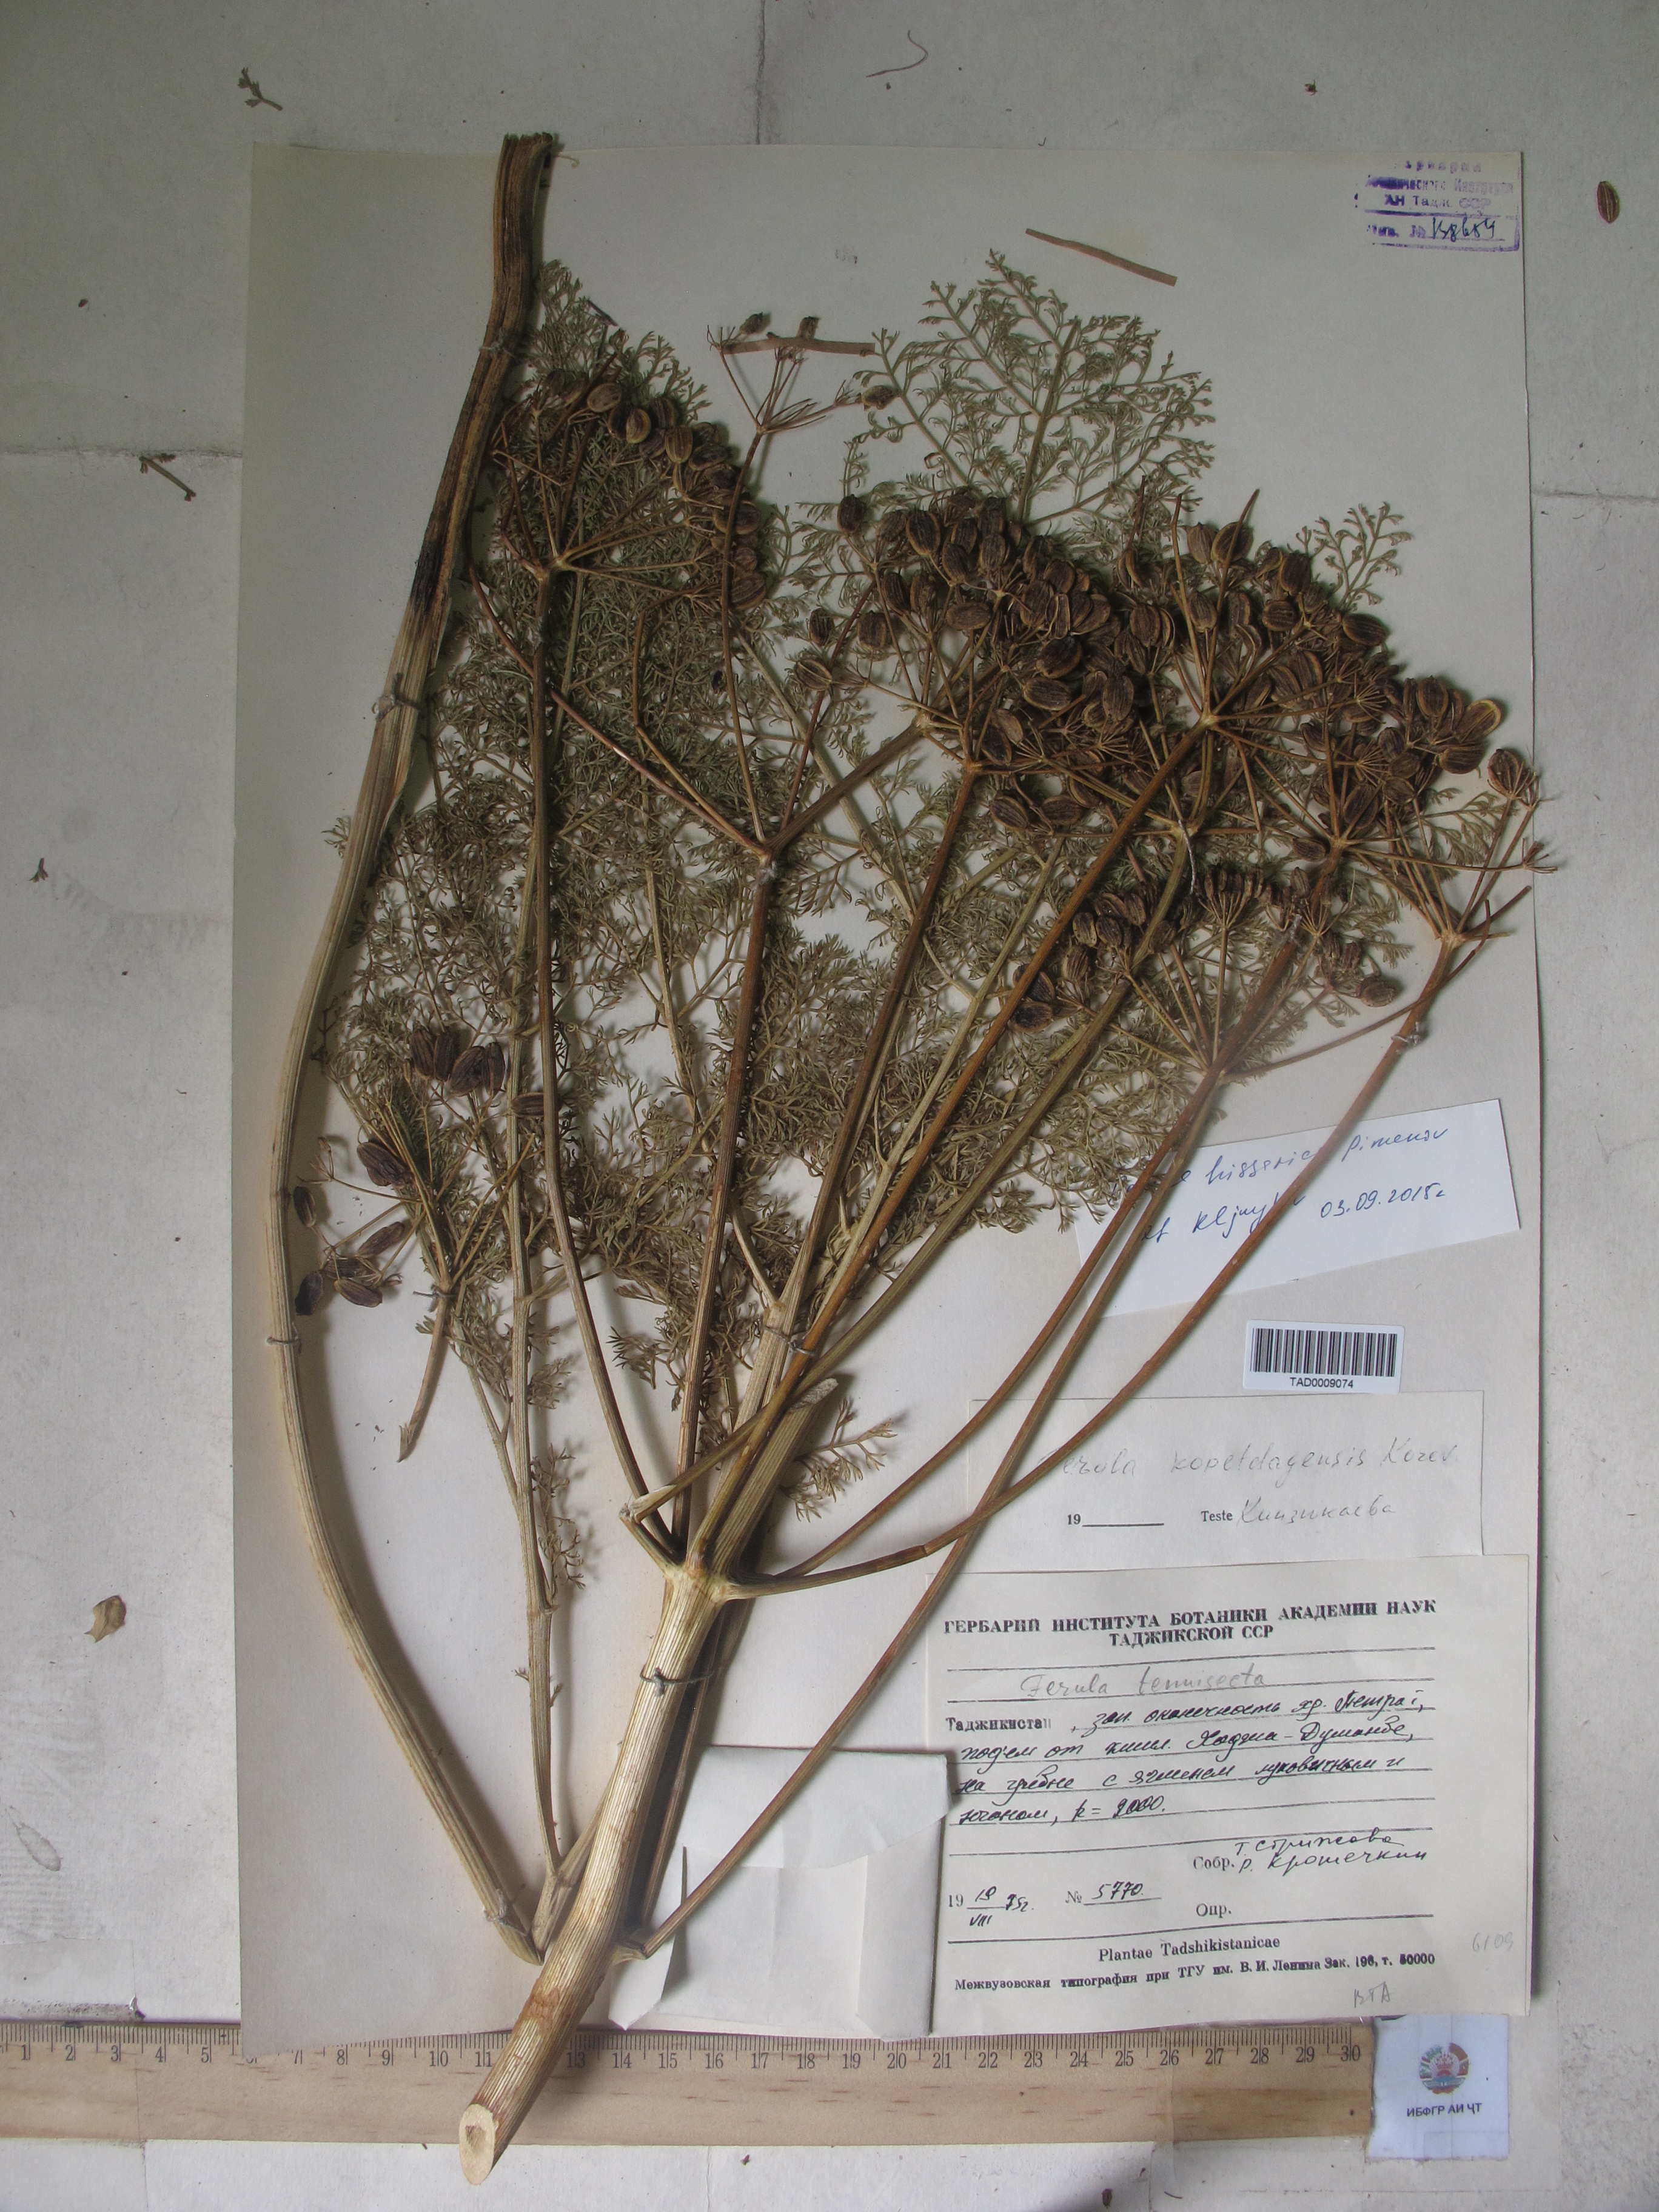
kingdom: Plantae
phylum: Tracheophyta
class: Magnoliopsida
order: Apiales
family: Apiaceae
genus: Ferula
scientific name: Ferula hissarica
